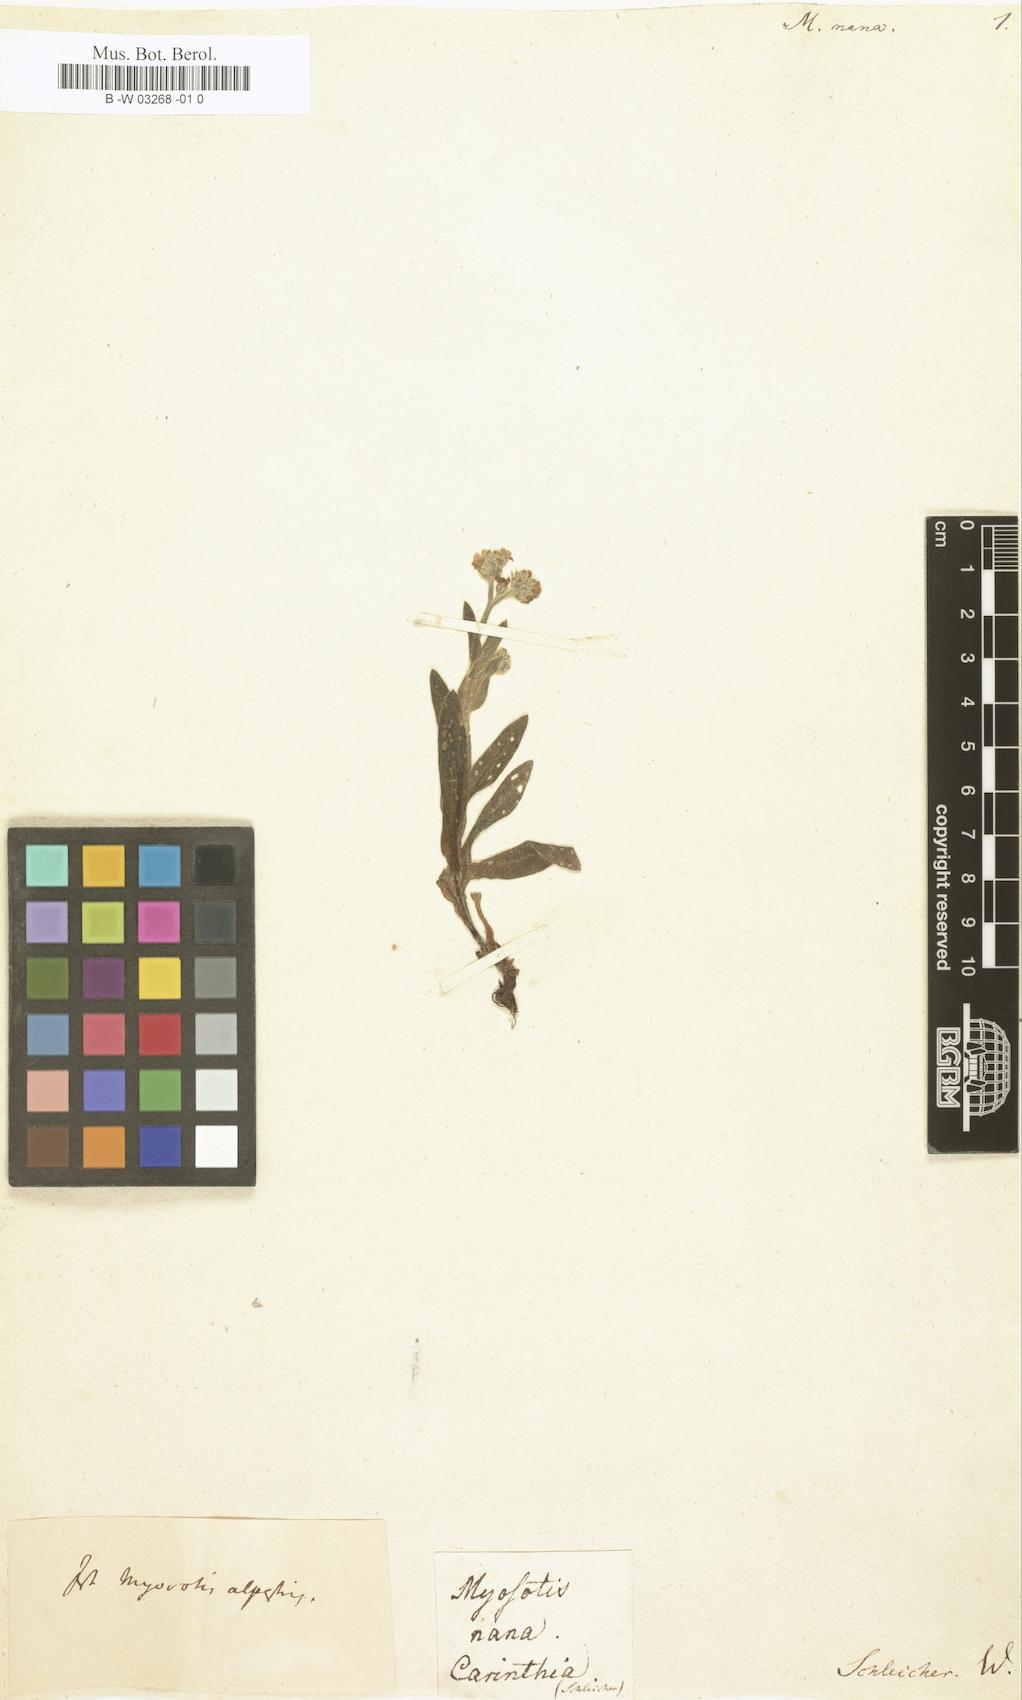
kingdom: Plantae
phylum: Tracheophyta
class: Magnoliopsida
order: Boraginales
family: Boraginaceae
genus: Eritrichium
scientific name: Eritrichium nanum
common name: King-of-the-alps
